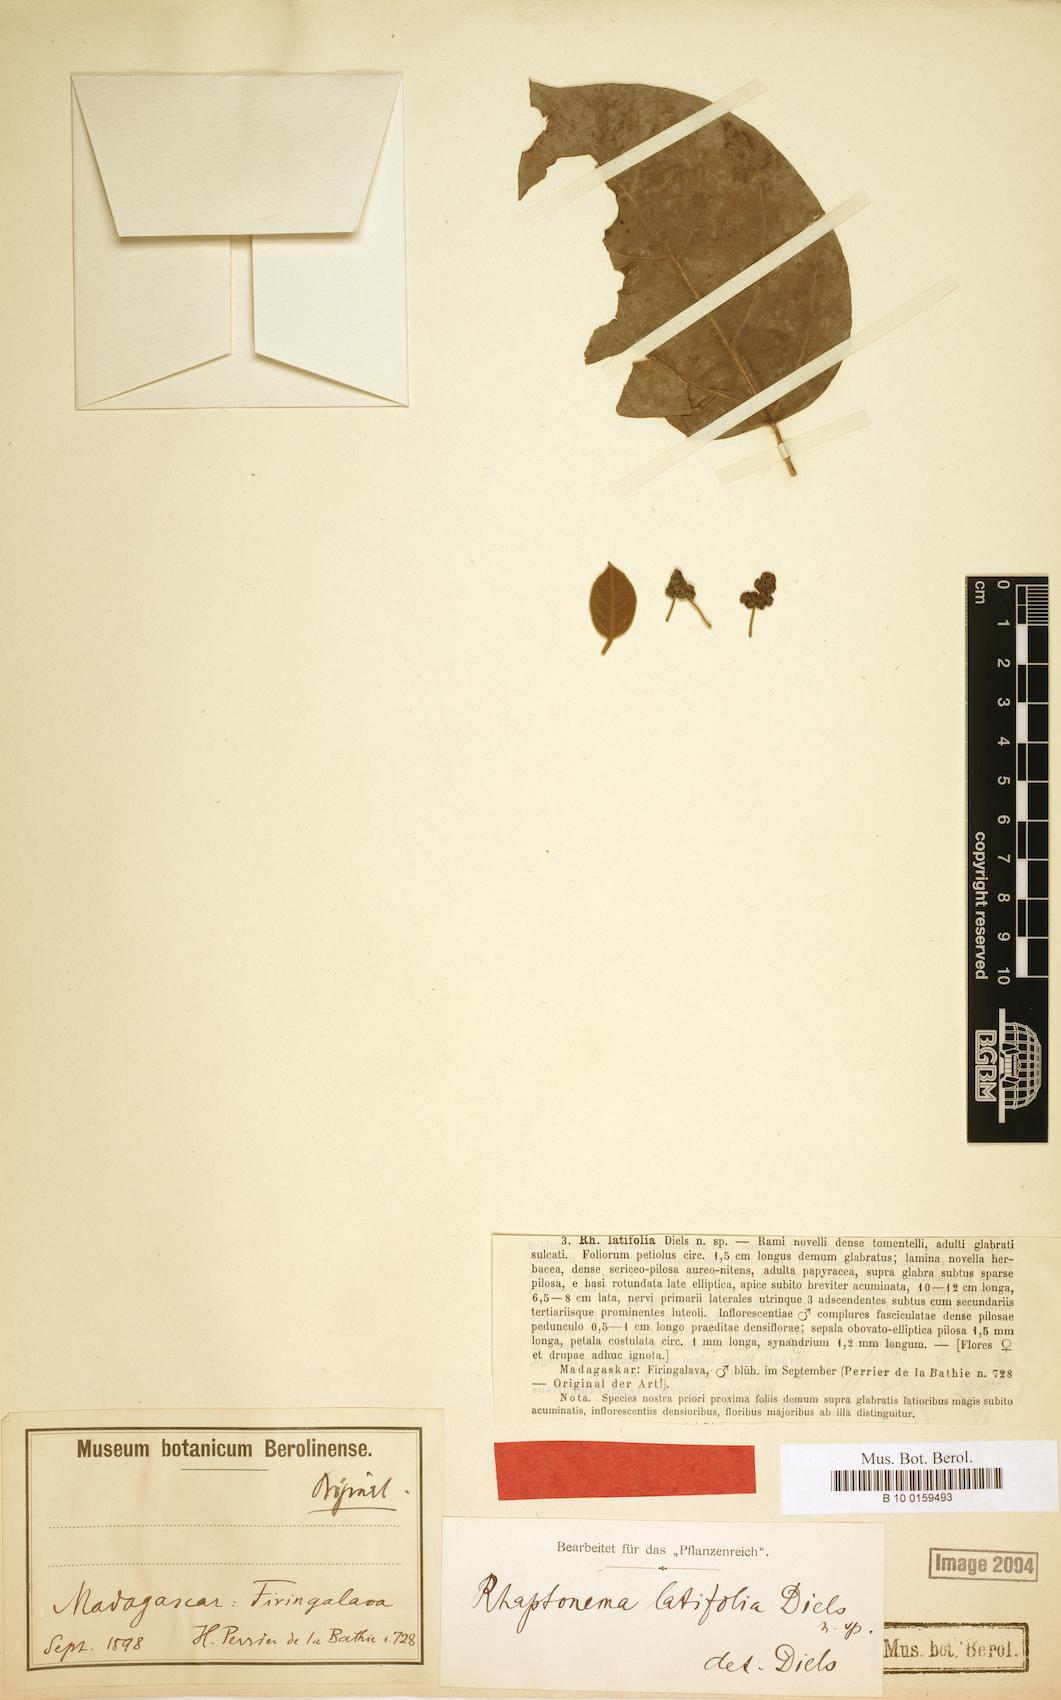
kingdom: Plantae
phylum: Tracheophyta
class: Magnoliopsida
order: Ranunculales
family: Menispermaceae
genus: Rhaptonema
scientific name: Rhaptonema latifolia
